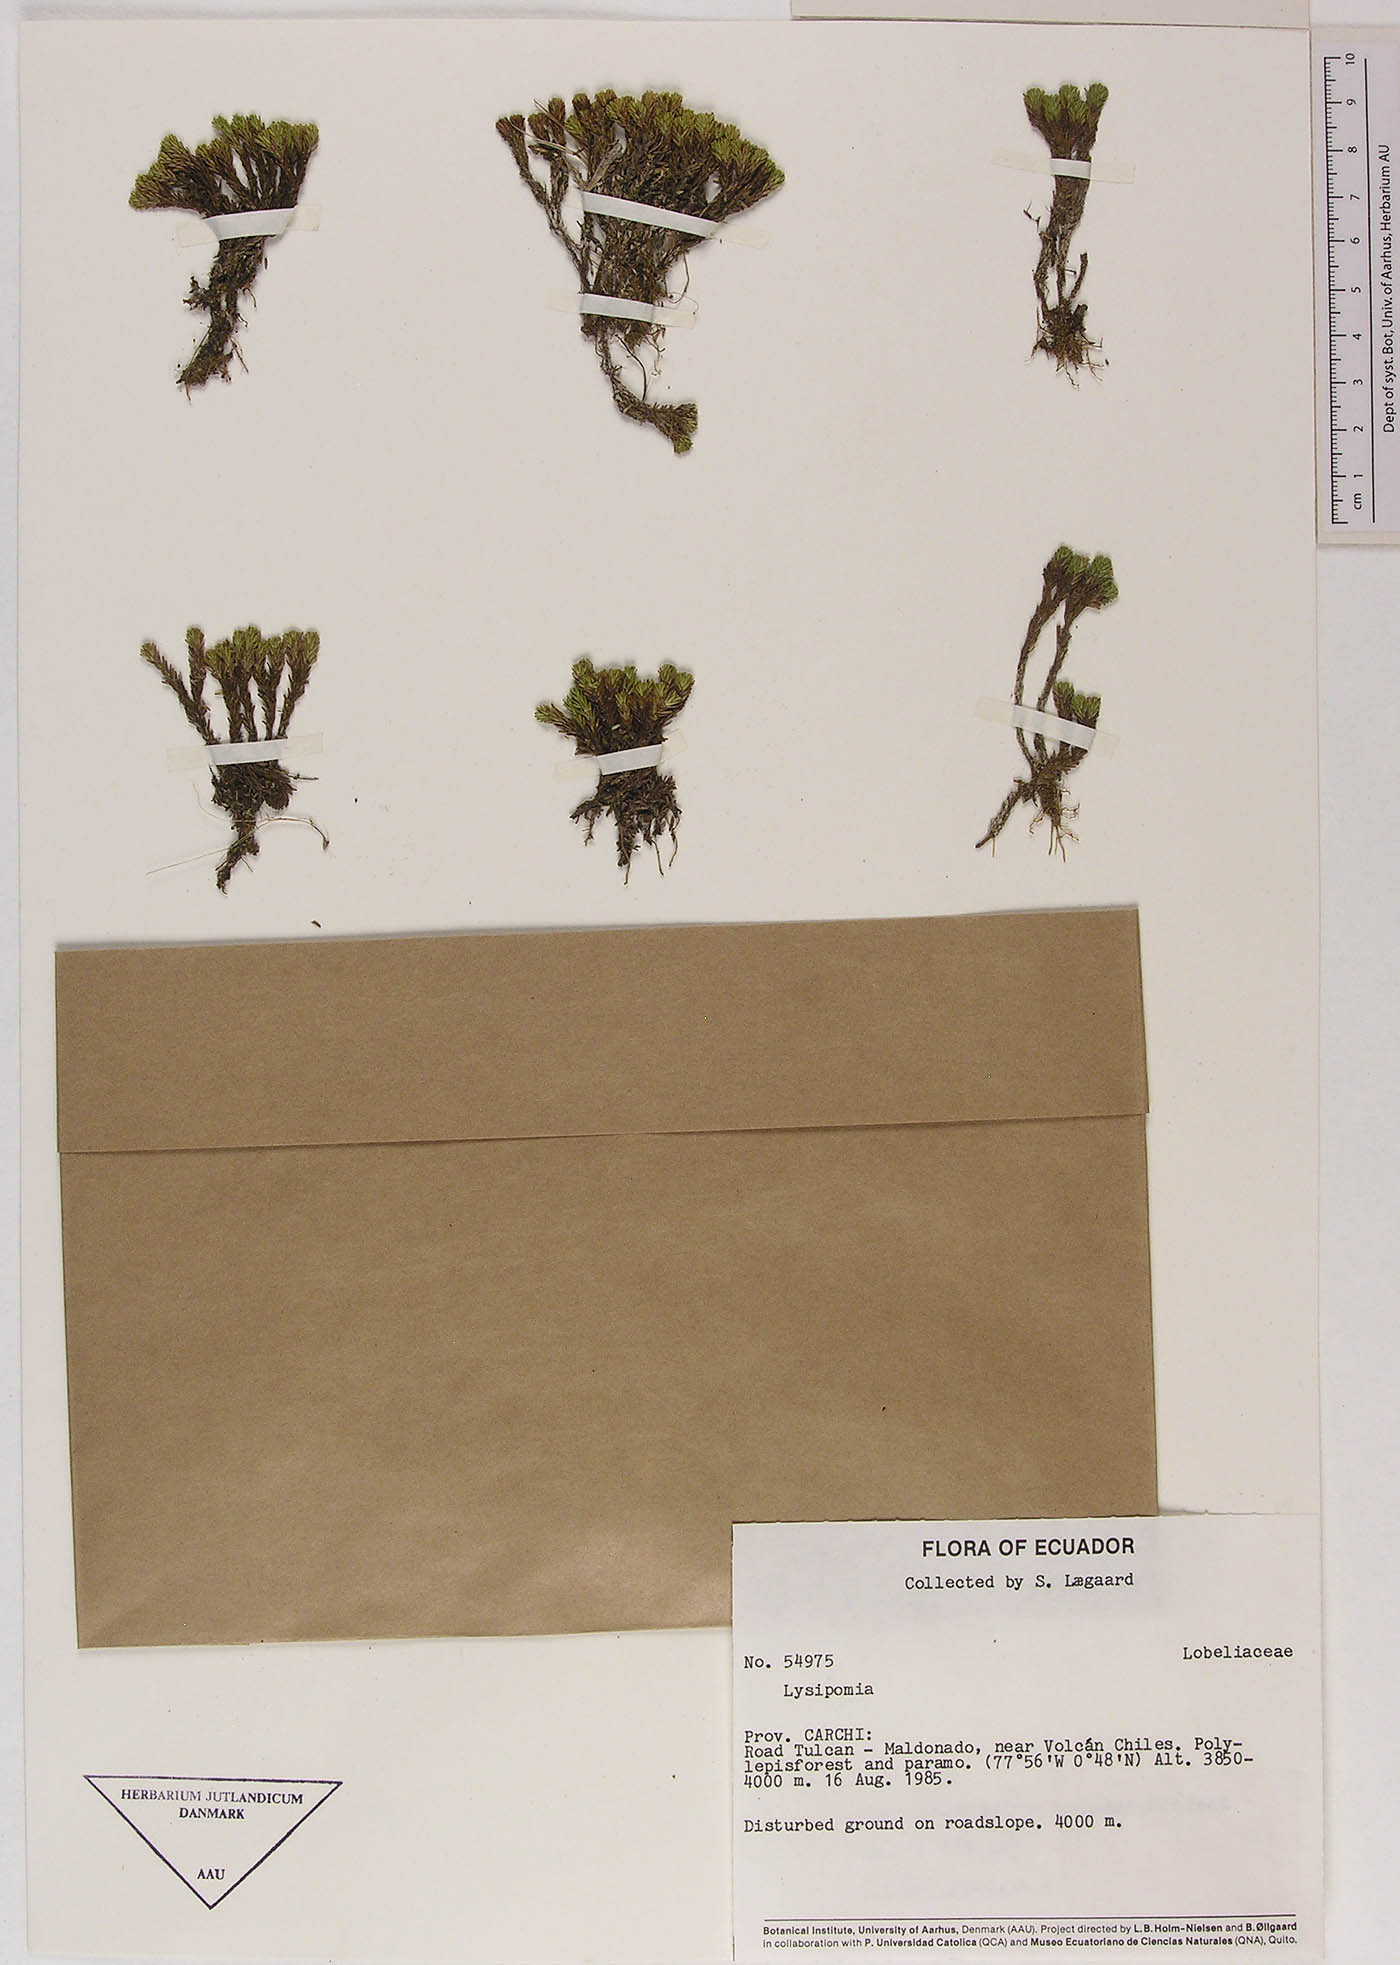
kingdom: Plantae
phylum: Tracheophyta
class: Magnoliopsida
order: Asterales
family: Campanulaceae
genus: Lysipomia
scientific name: Lysipomia
